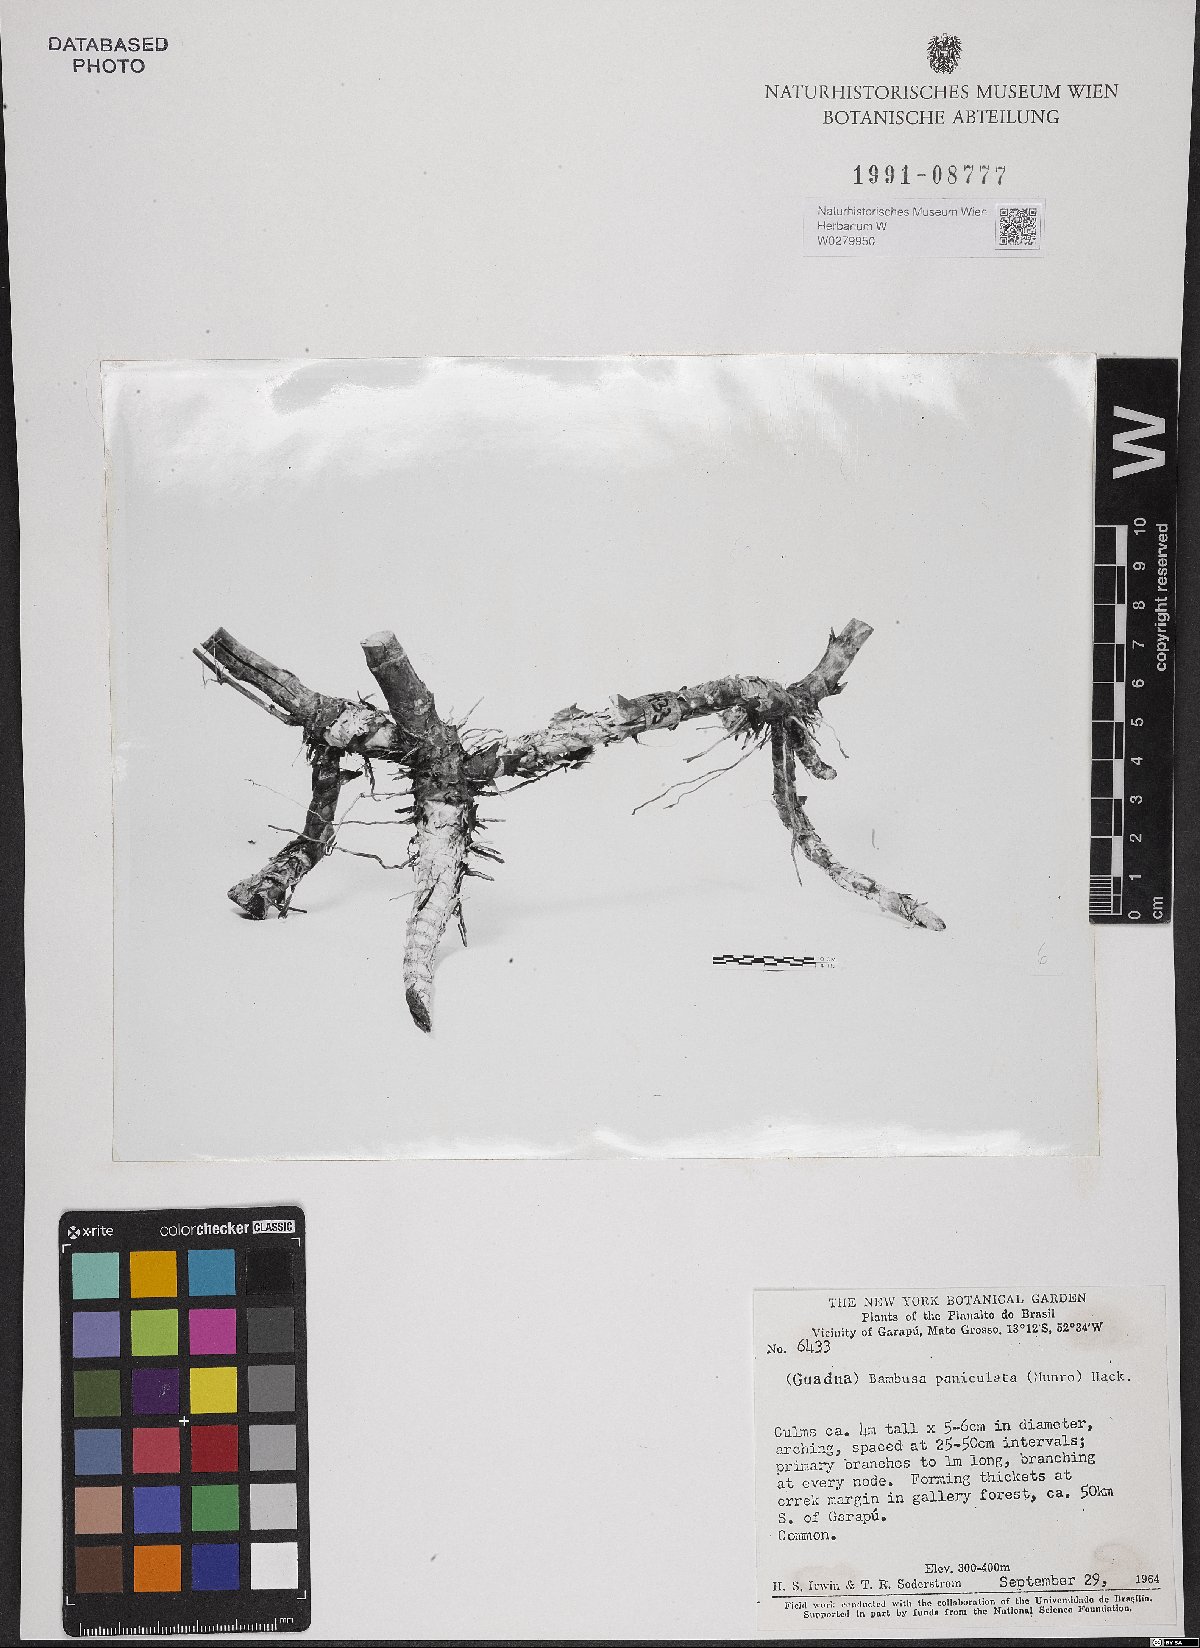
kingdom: Plantae
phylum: Tracheophyta
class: Liliopsida
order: Poales
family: Poaceae
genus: Guadua
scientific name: Guadua paniculata
